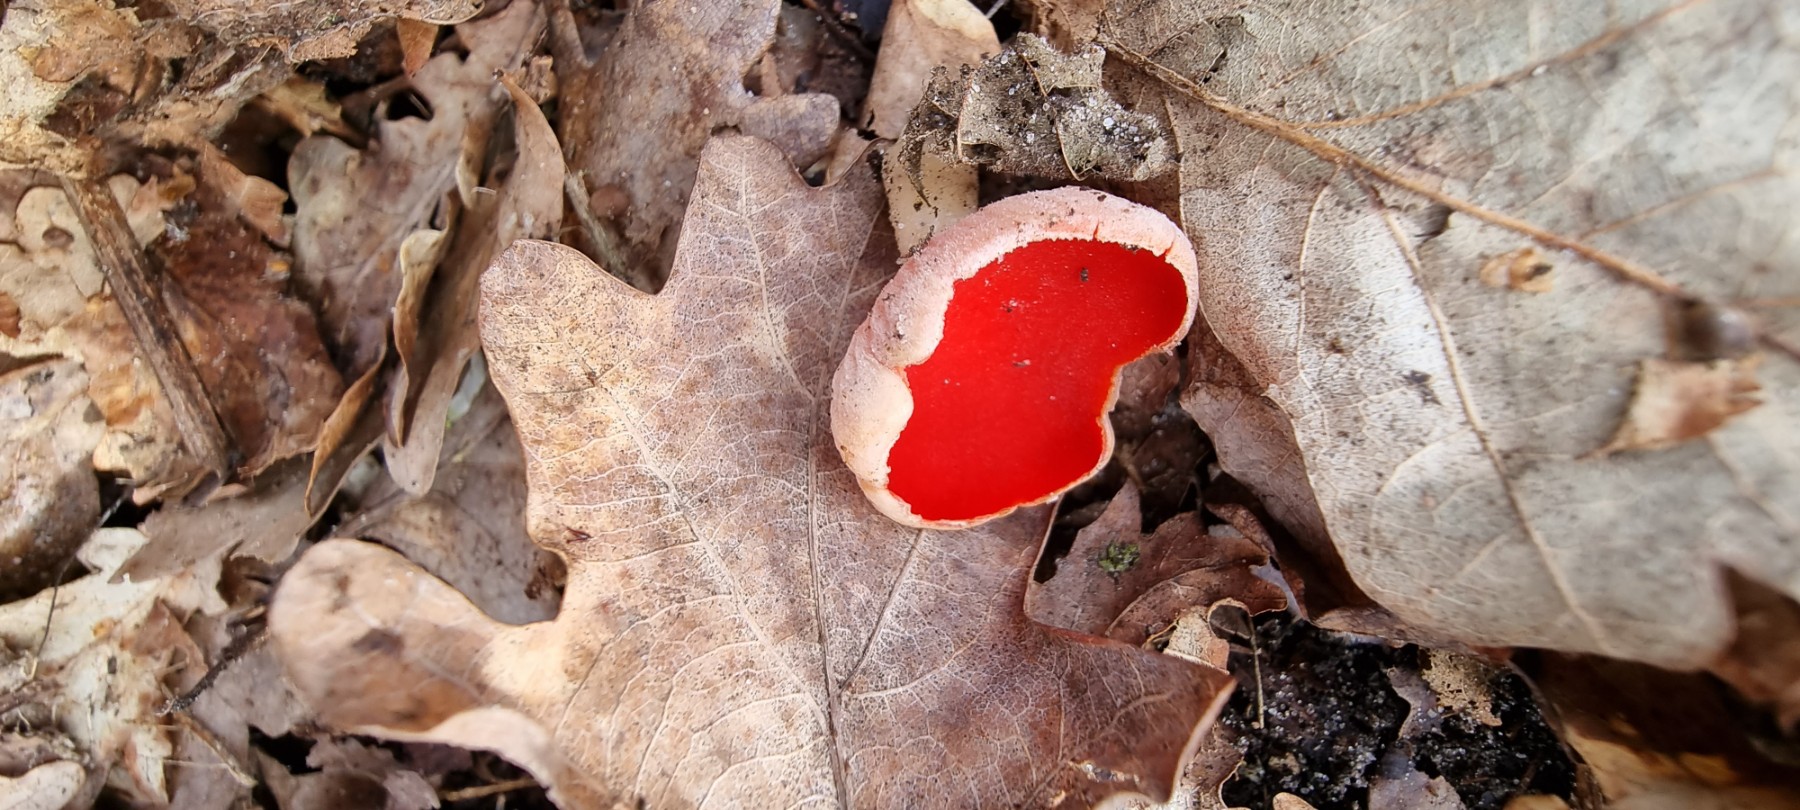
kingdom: Fungi
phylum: Ascomycota
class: Pezizomycetes
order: Pezizales
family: Sarcoscyphaceae
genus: Sarcoscypha
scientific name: Sarcoscypha austriaca
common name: krølhåret pragtbæger
